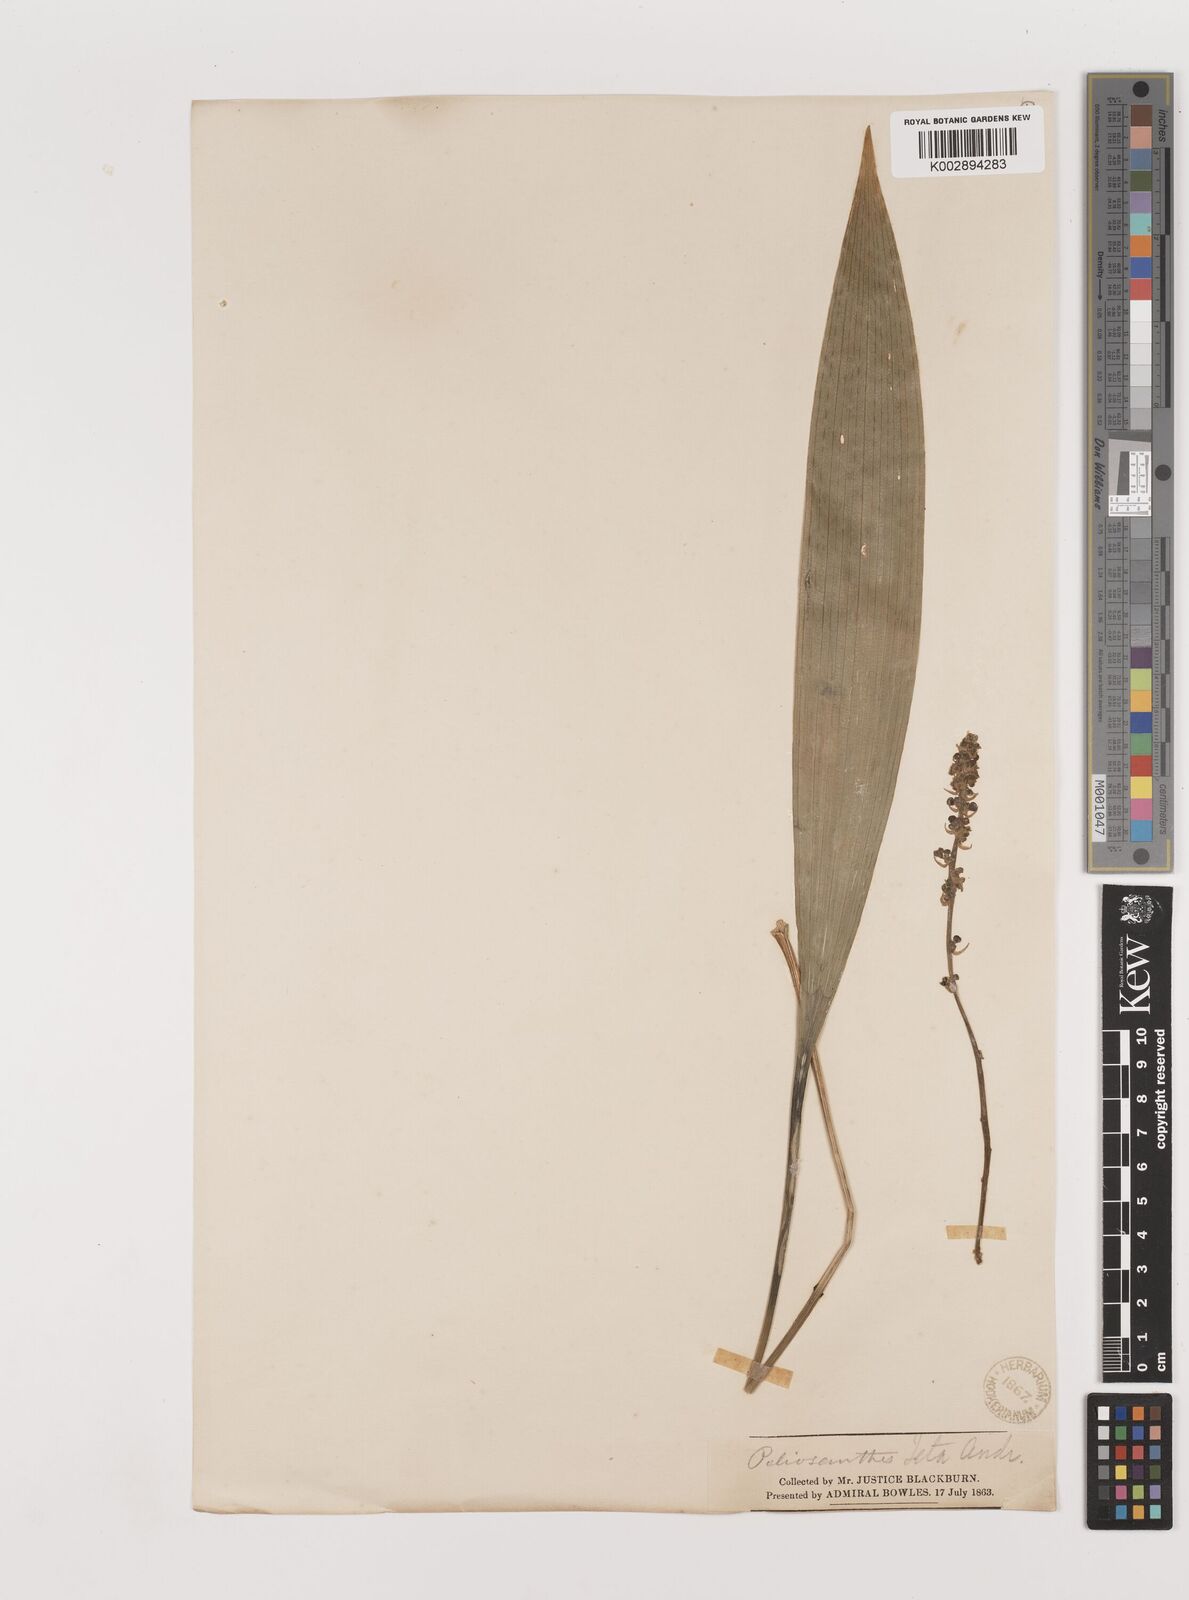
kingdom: Plantae
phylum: Tracheophyta
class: Liliopsida
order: Asparagales
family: Asparagaceae
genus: Peliosanthes
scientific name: Peliosanthes teta
